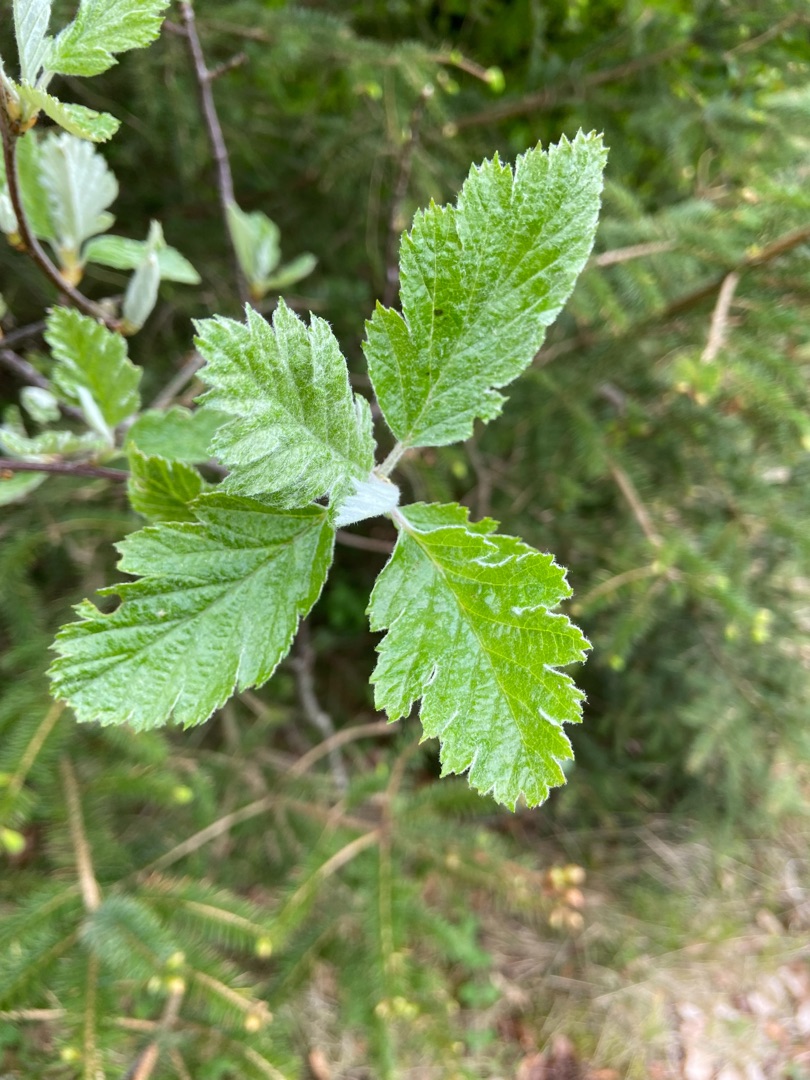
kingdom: Plantae
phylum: Tracheophyta
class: Magnoliopsida
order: Rosales
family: Rosaceae
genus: Scandosorbus
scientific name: Scandosorbus intermedia
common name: Selje-røn
